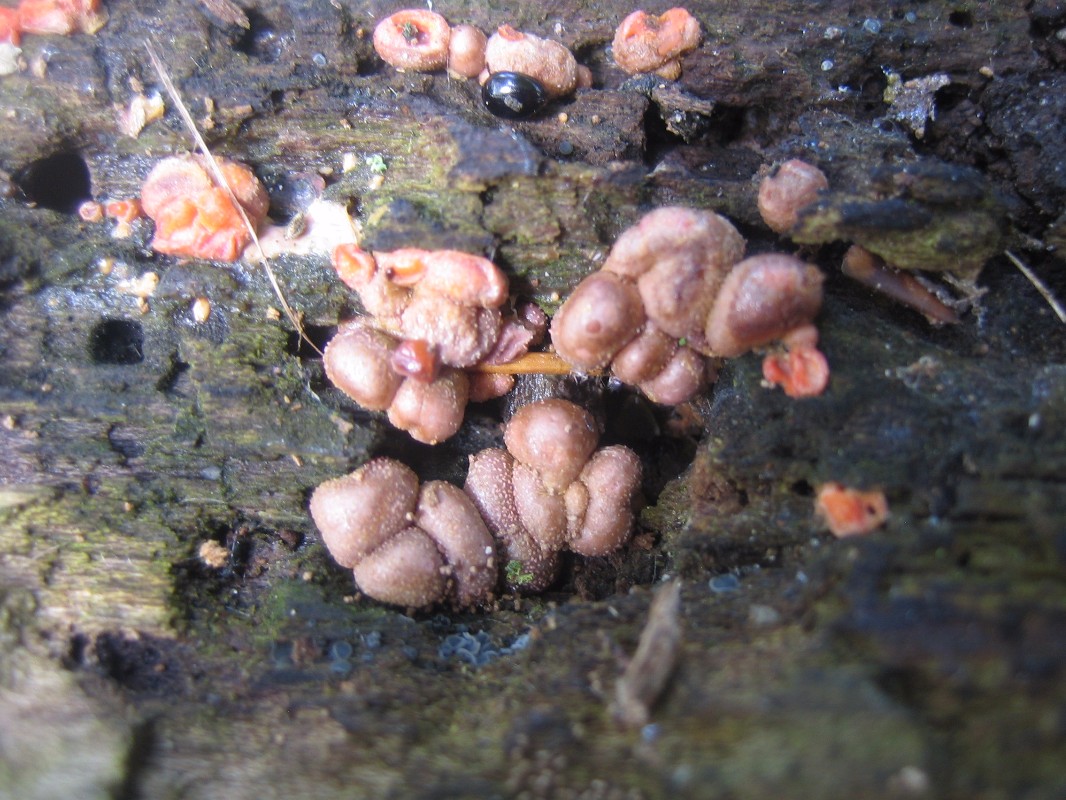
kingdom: Protozoa
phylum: Mycetozoa
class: Myxomycetes
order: Cribrariales
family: Tubiferaceae
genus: Lycogala
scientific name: Lycogala epidendrum
